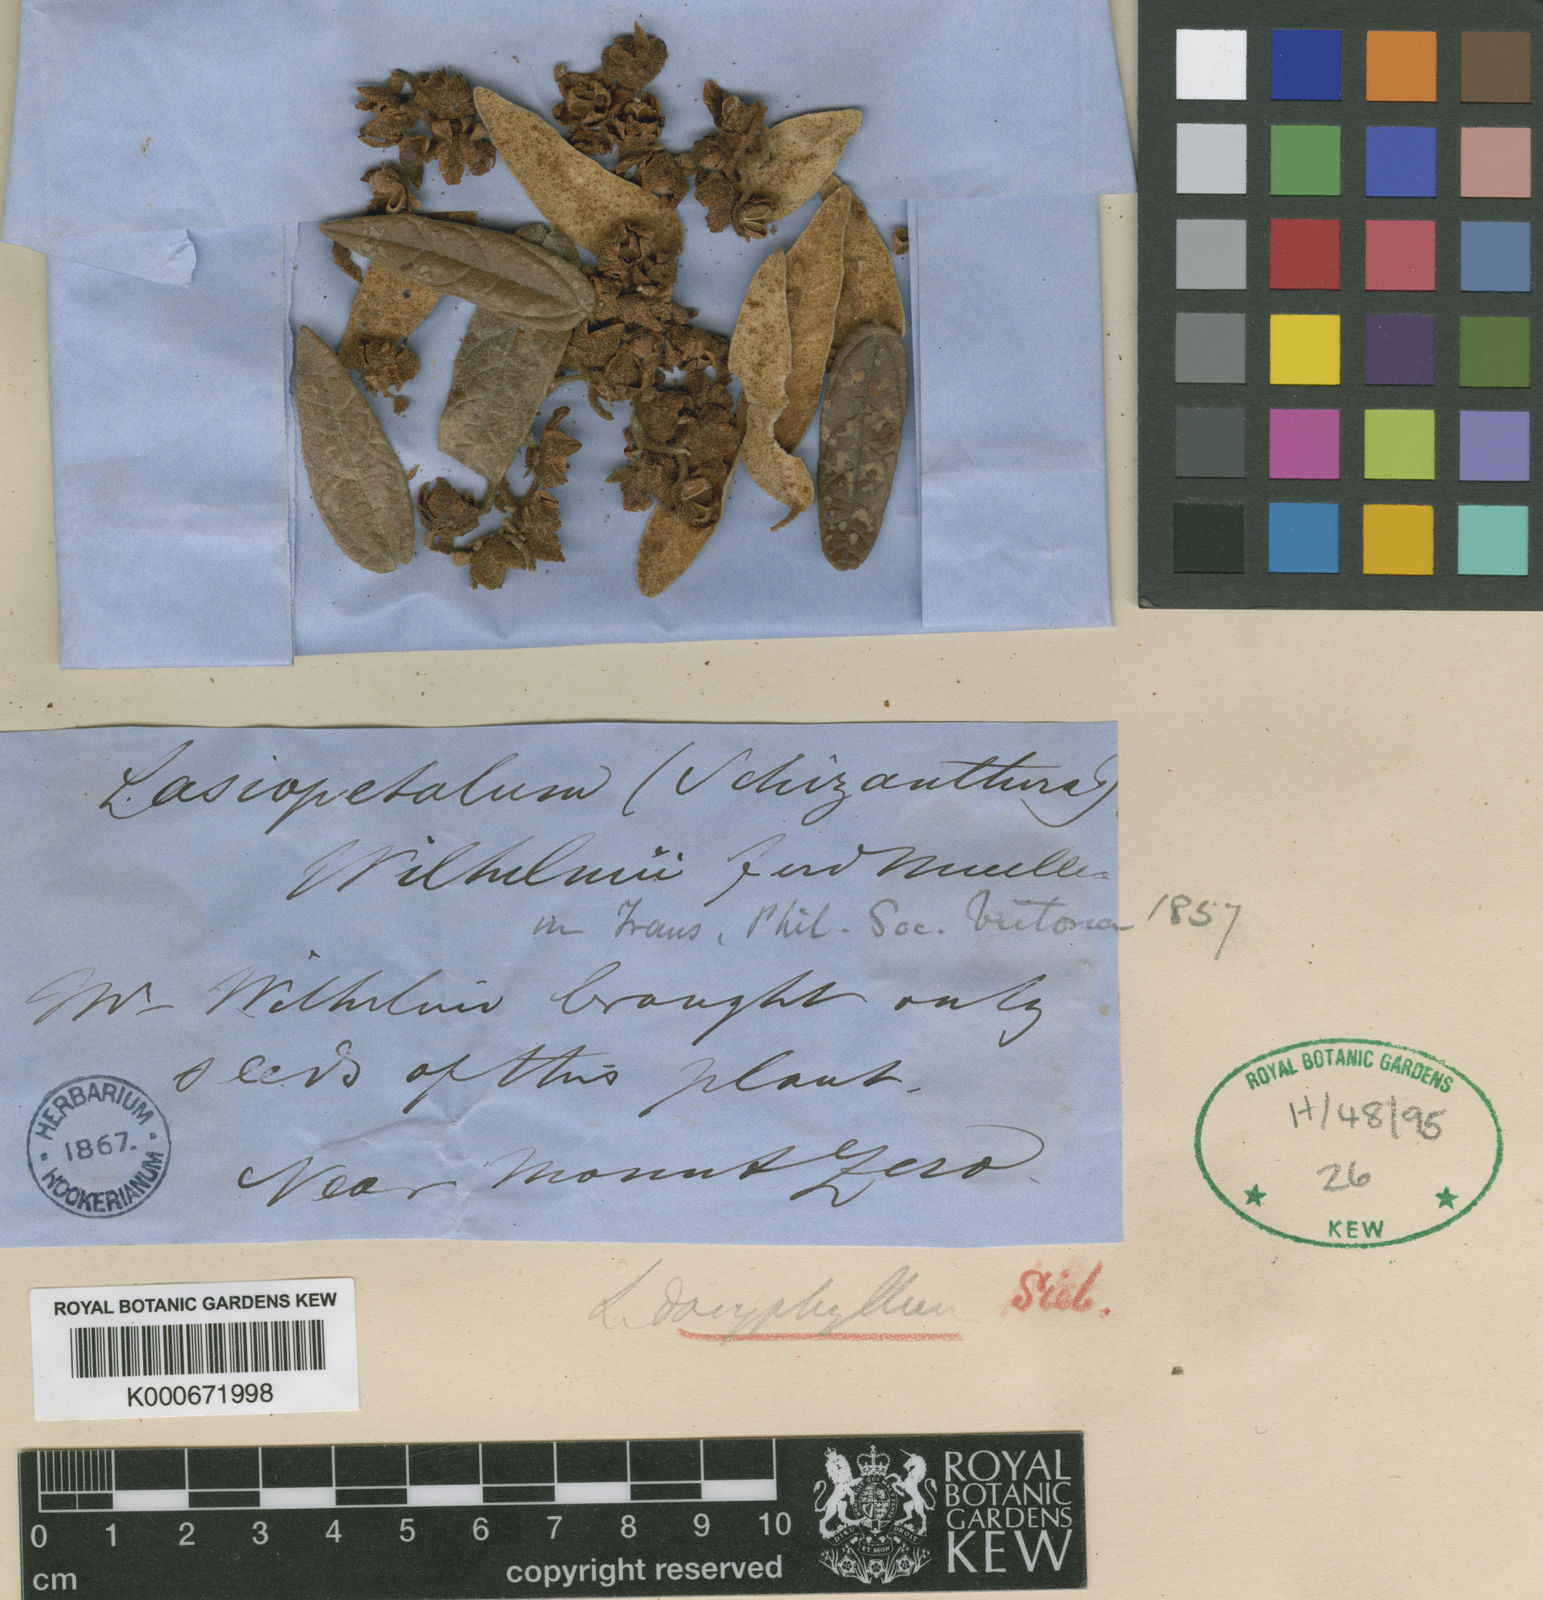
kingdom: Plantae
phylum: Tracheophyta
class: Magnoliopsida
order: Malvales
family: Malvaceae
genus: Lasiopetalum
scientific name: Lasiopetalum macrophyllum
